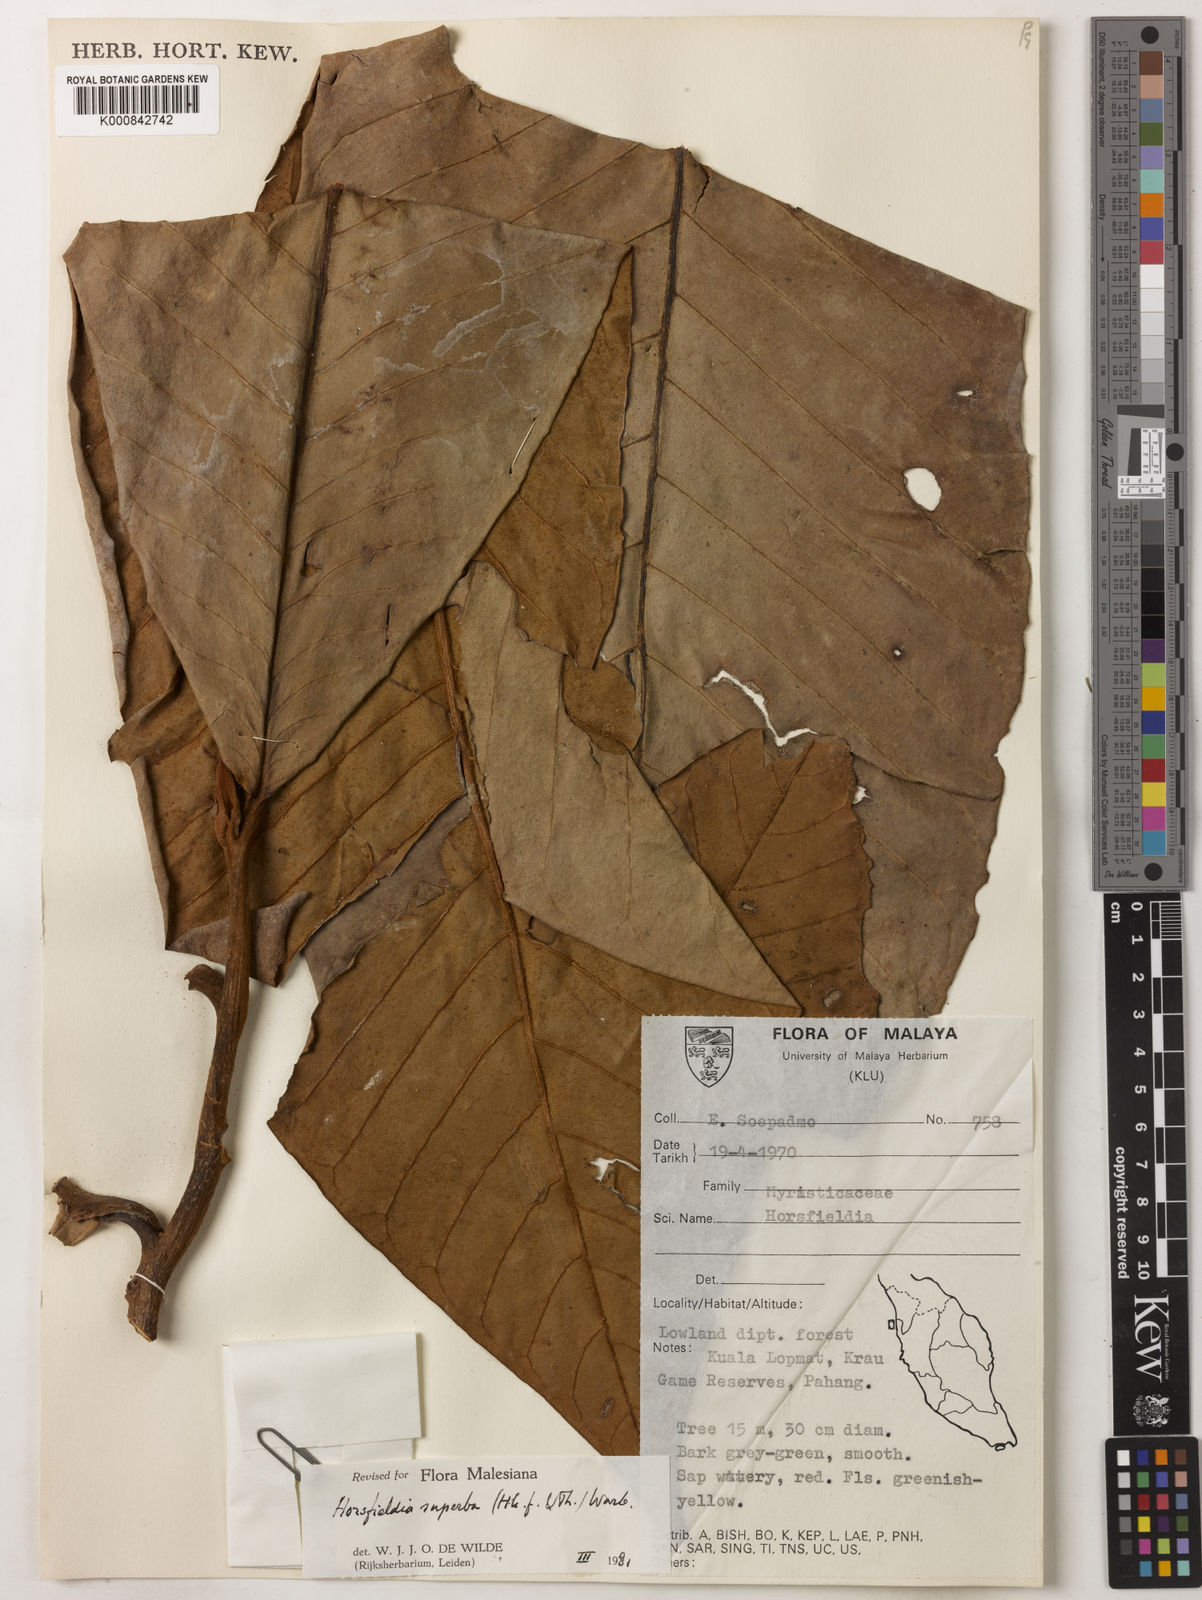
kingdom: Plantae
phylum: Tracheophyta
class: Magnoliopsida
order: Magnoliales
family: Myristicaceae
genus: Horsfieldia
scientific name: Horsfieldia superba
